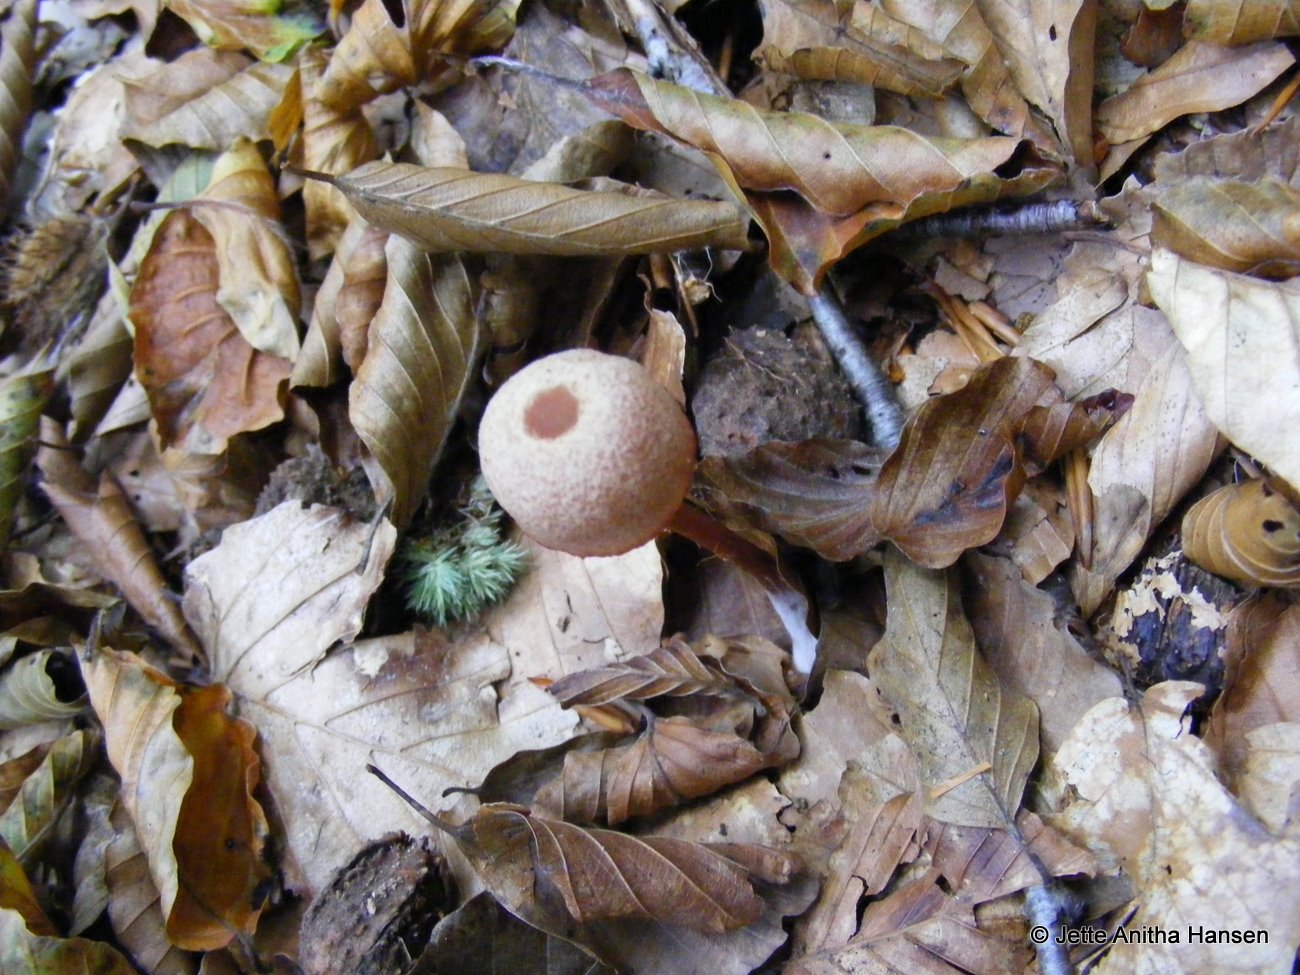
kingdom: Fungi
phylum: Basidiomycota
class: Agaricomycetes
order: Agaricales
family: Hydnangiaceae
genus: Laccaria
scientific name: Laccaria laccata
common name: rød ametysthat
